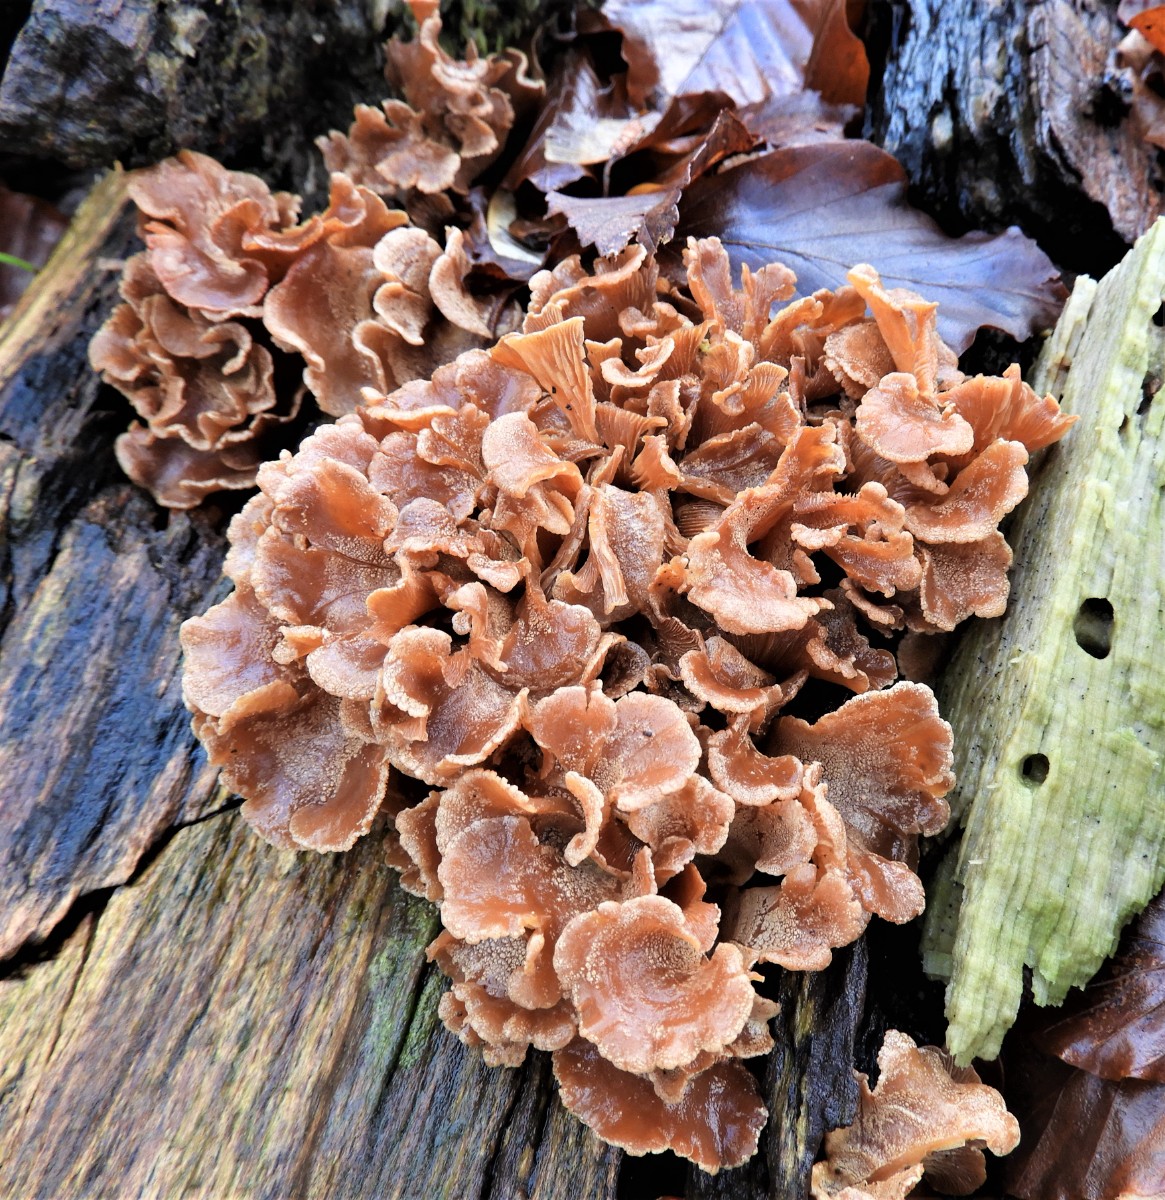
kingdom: Fungi
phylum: Basidiomycota
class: Agaricomycetes
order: Agaricales
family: Mycenaceae
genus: Panellus
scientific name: Panellus stipticus
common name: kliddet epaulethat
